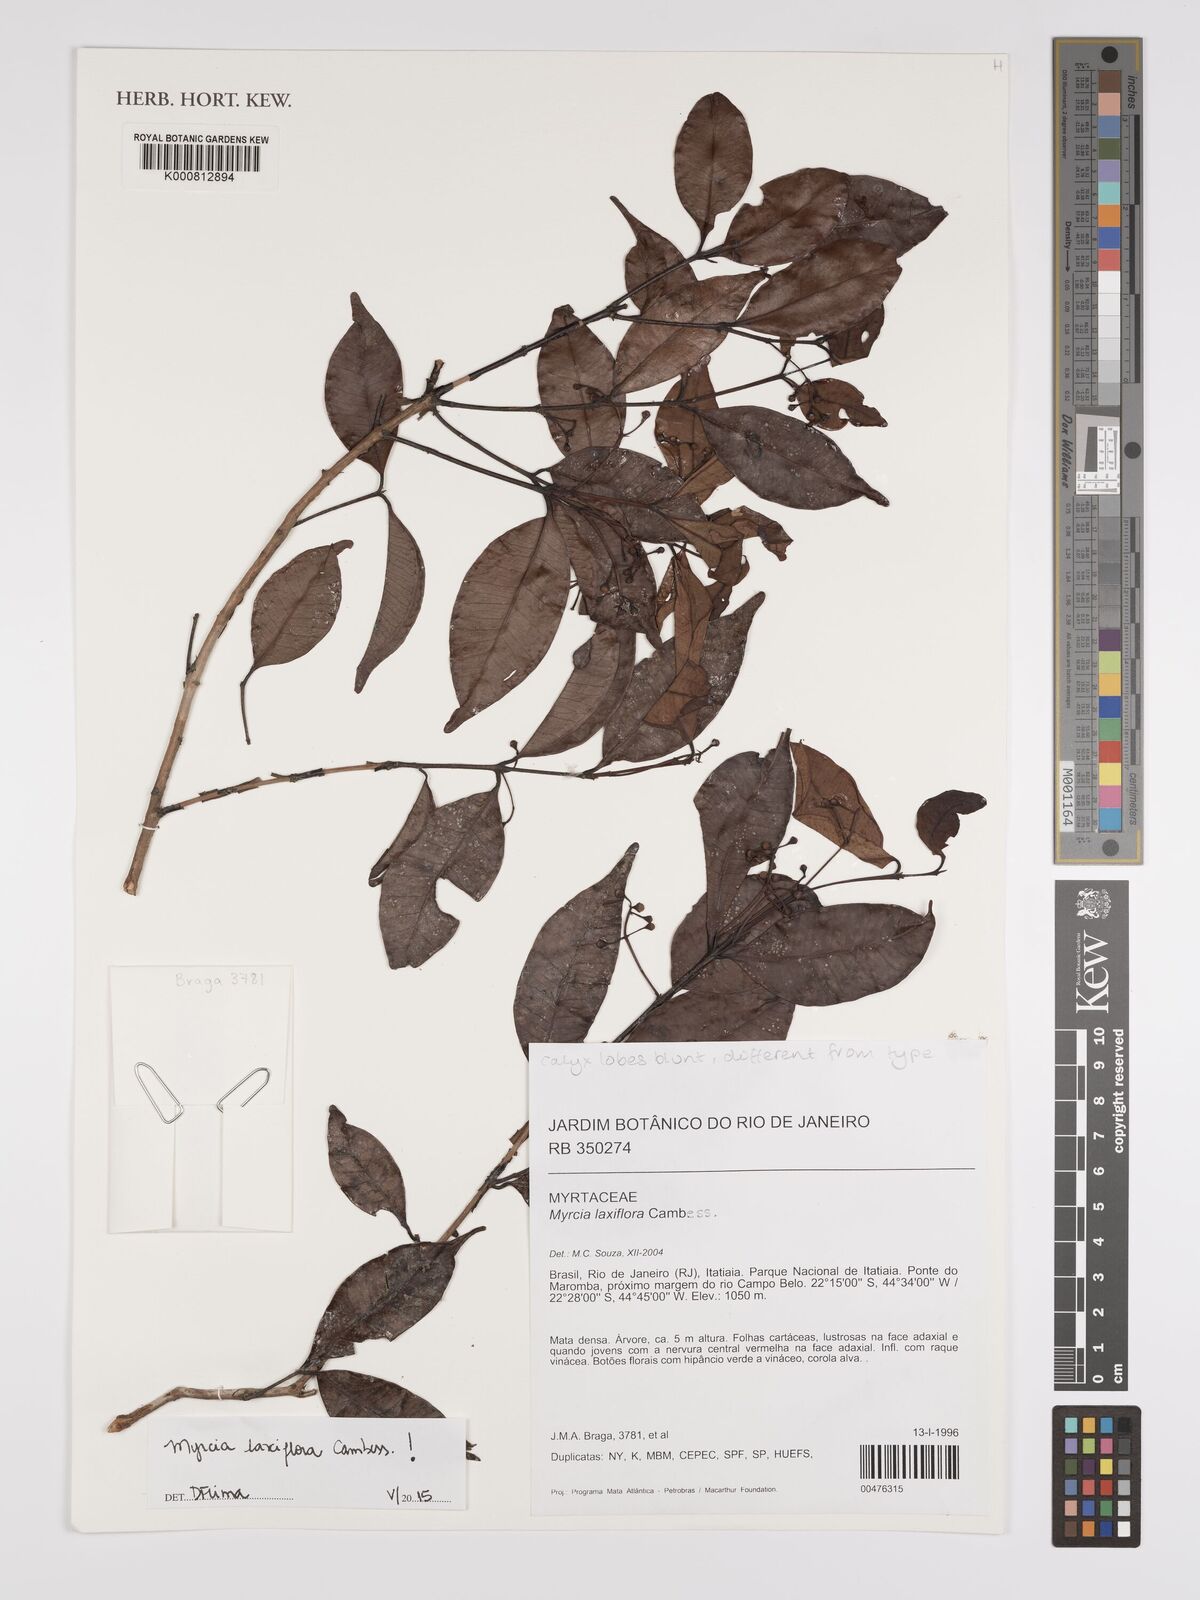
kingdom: Plantae
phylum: Tracheophyta
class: Magnoliopsida
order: Myrtales
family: Myrtaceae
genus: Myrcia
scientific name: Myrcia laxiflora
